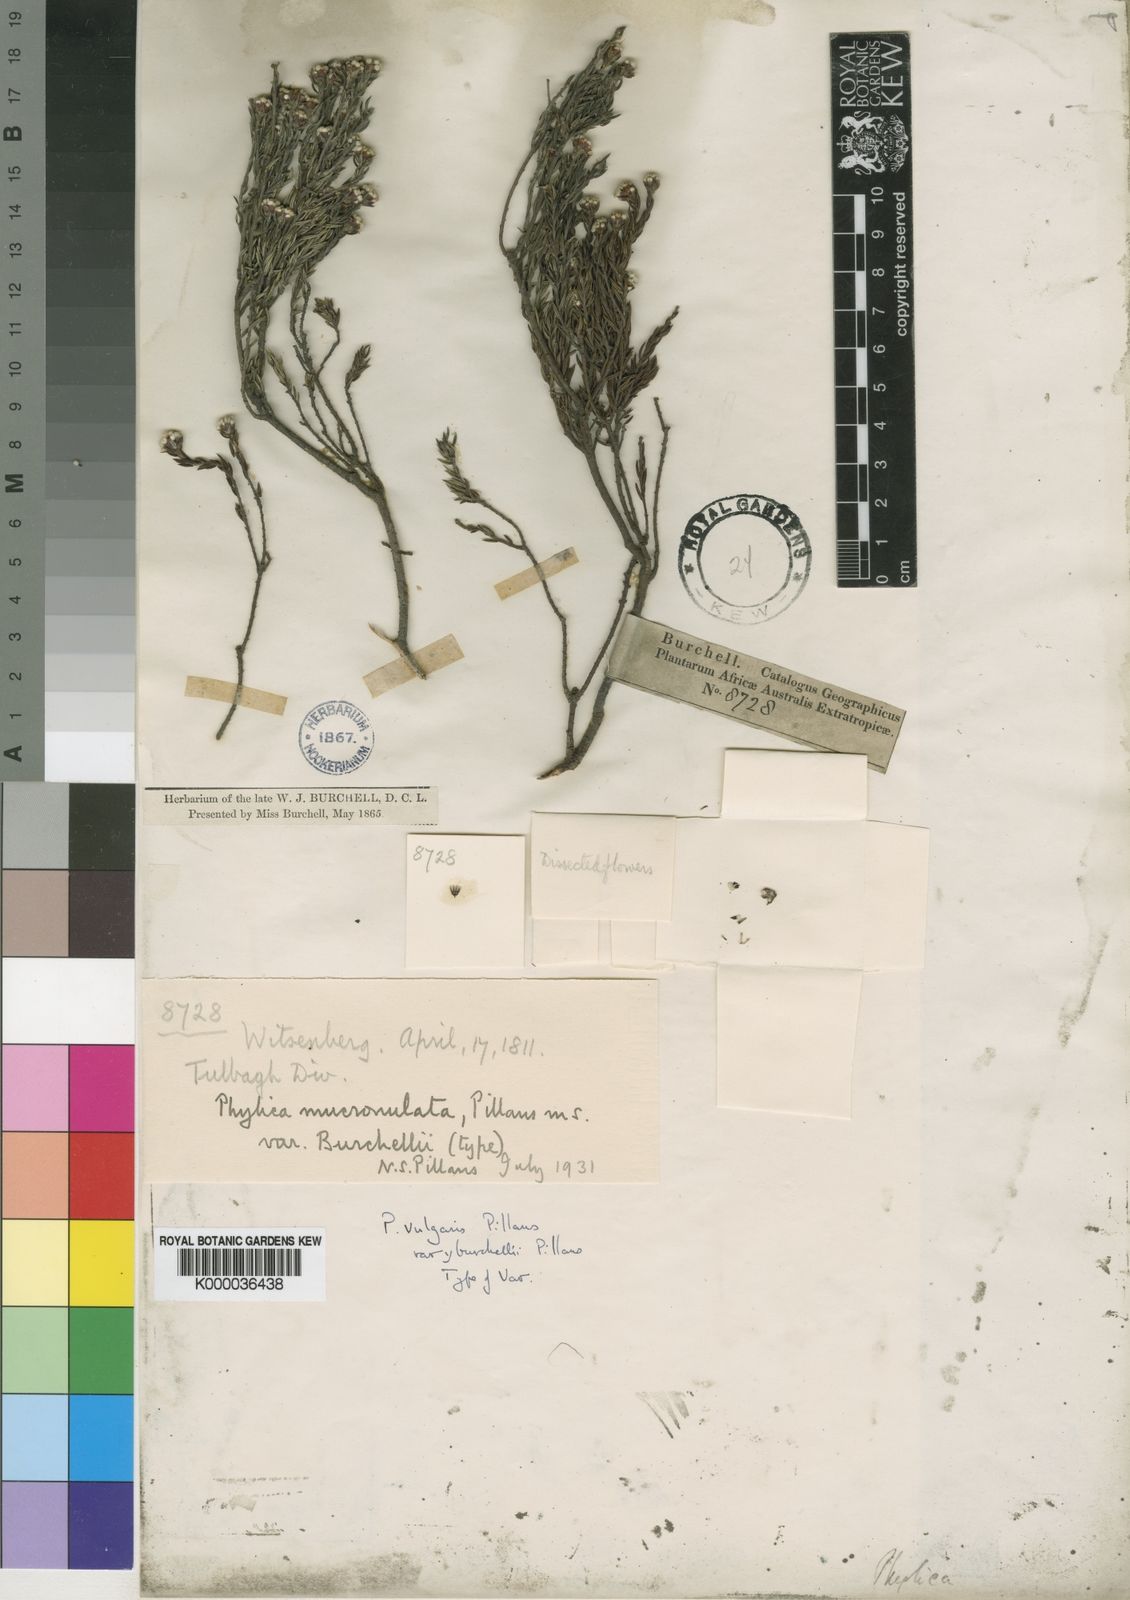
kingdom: Plantae
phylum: Tracheophyta
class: Magnoliopsida
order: Rosales
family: Rhamnaceae
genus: Phylica
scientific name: Phylica vulgaris
